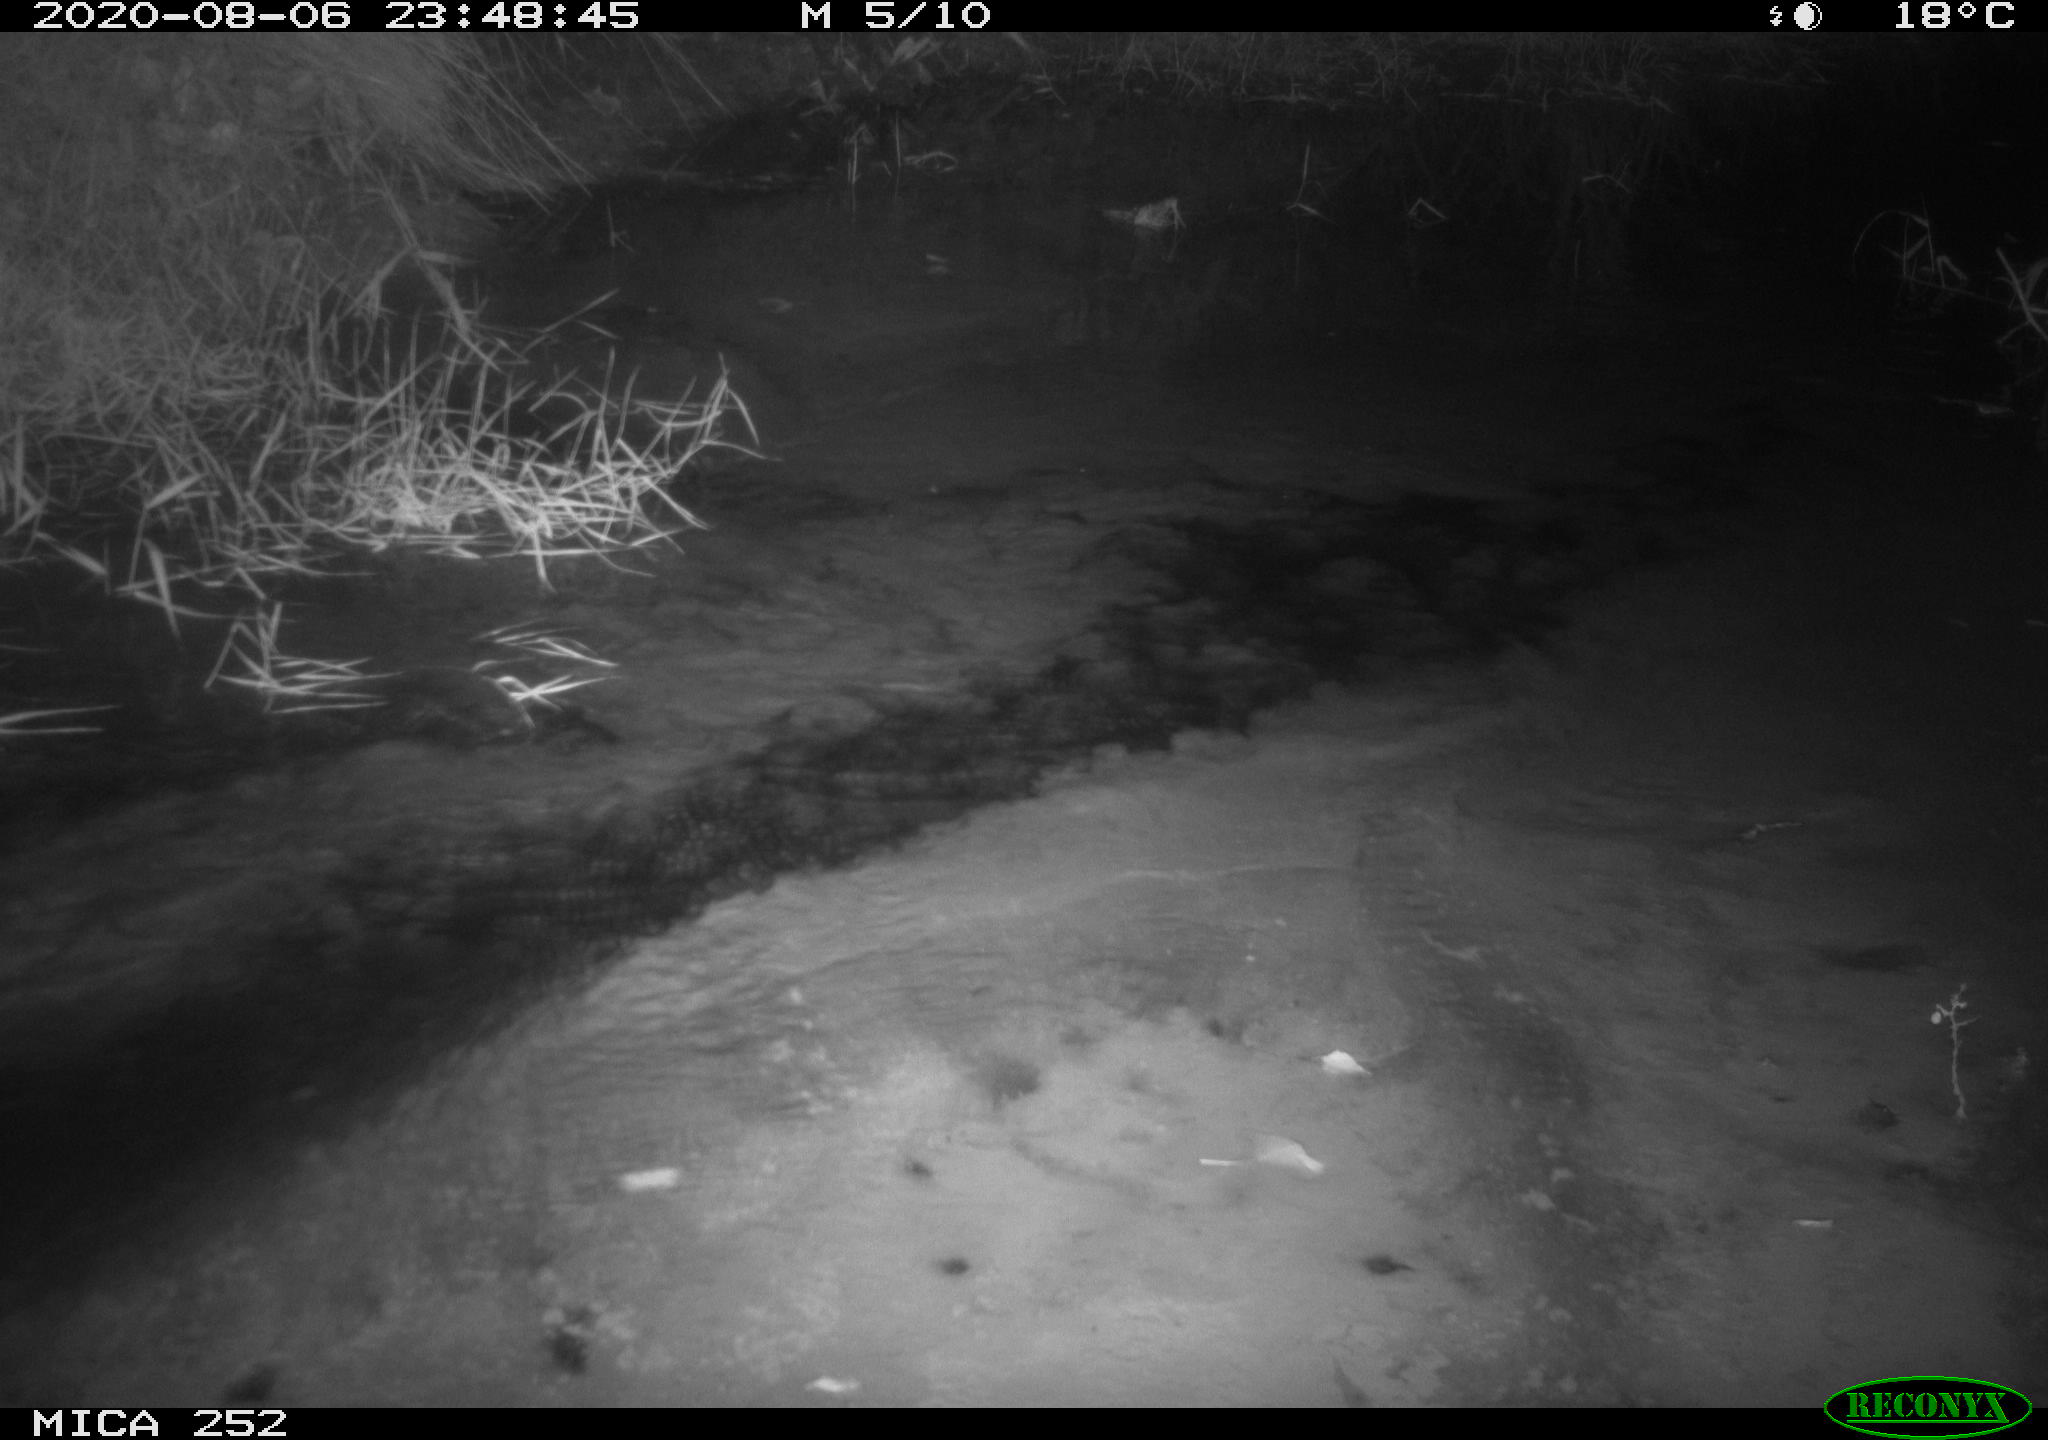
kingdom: Animalia
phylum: Chordata
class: Mammalia
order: Rodentia
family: Castoridae
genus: Castor
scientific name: Castor fiber
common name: Eurasian beaver
